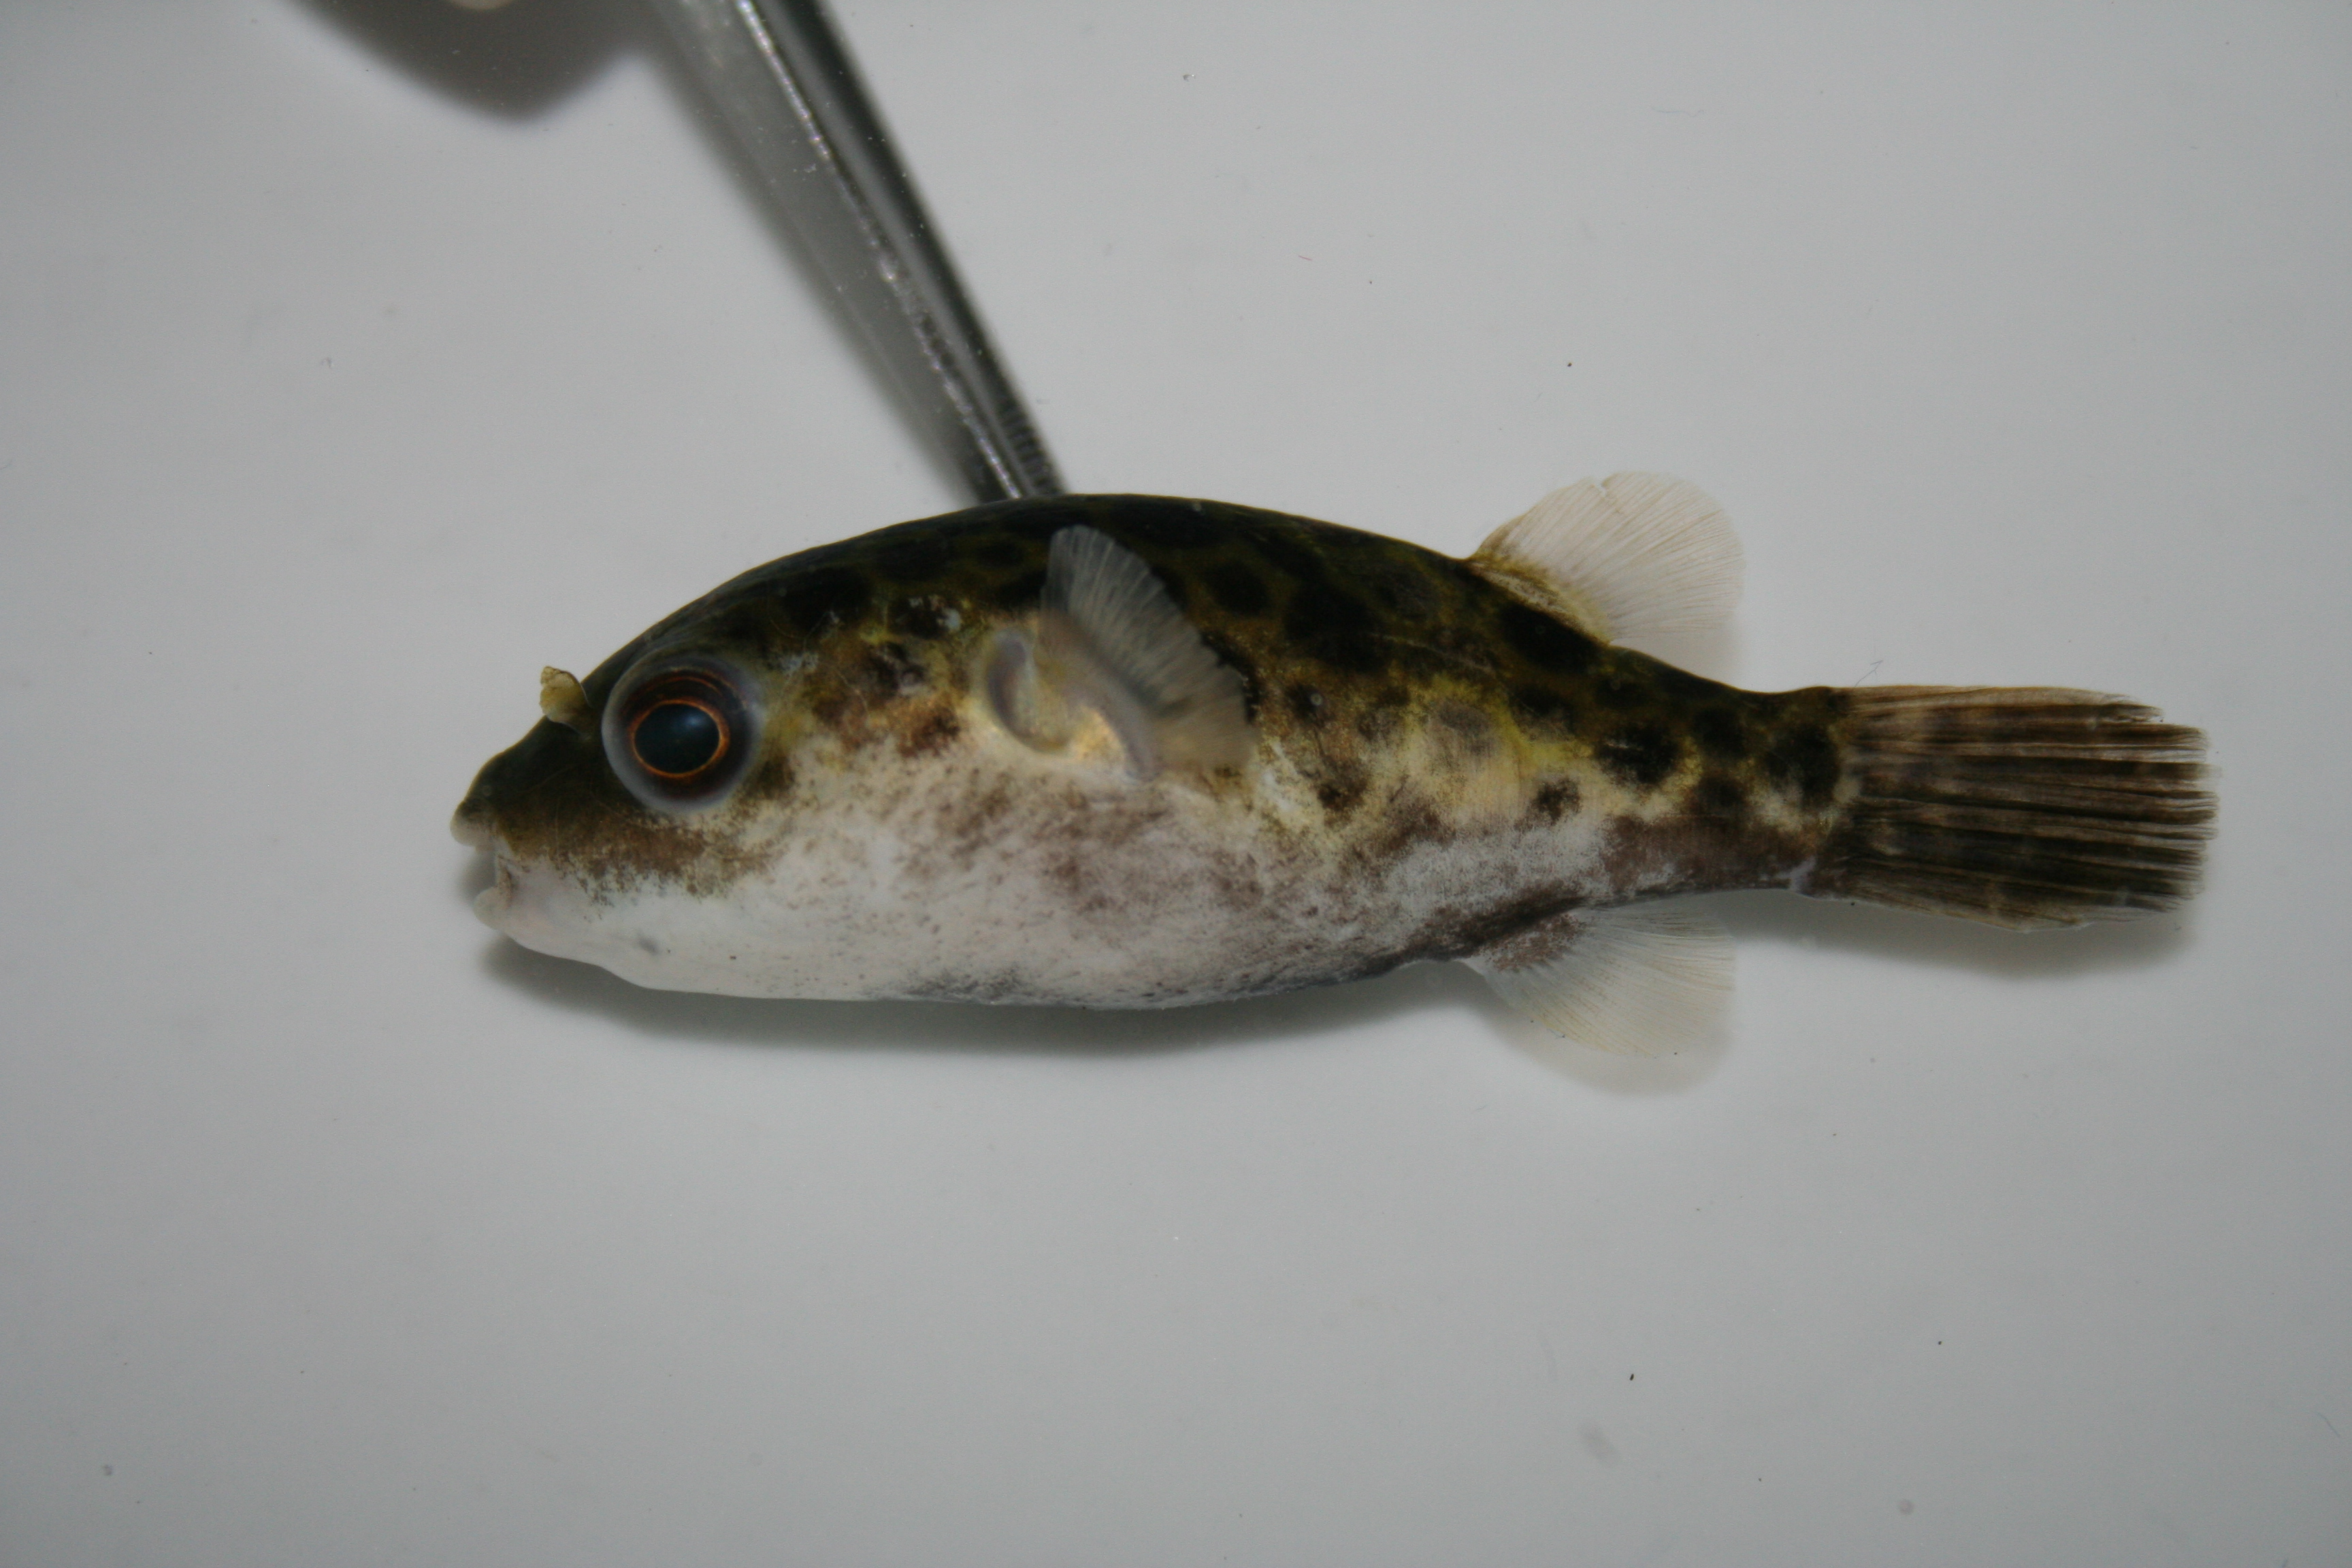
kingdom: Animalia
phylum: Chordata
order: Tetraodontiformes
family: Tetraodontidae
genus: Dichotomyctere
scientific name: Dichotomyctere nigroviridis
